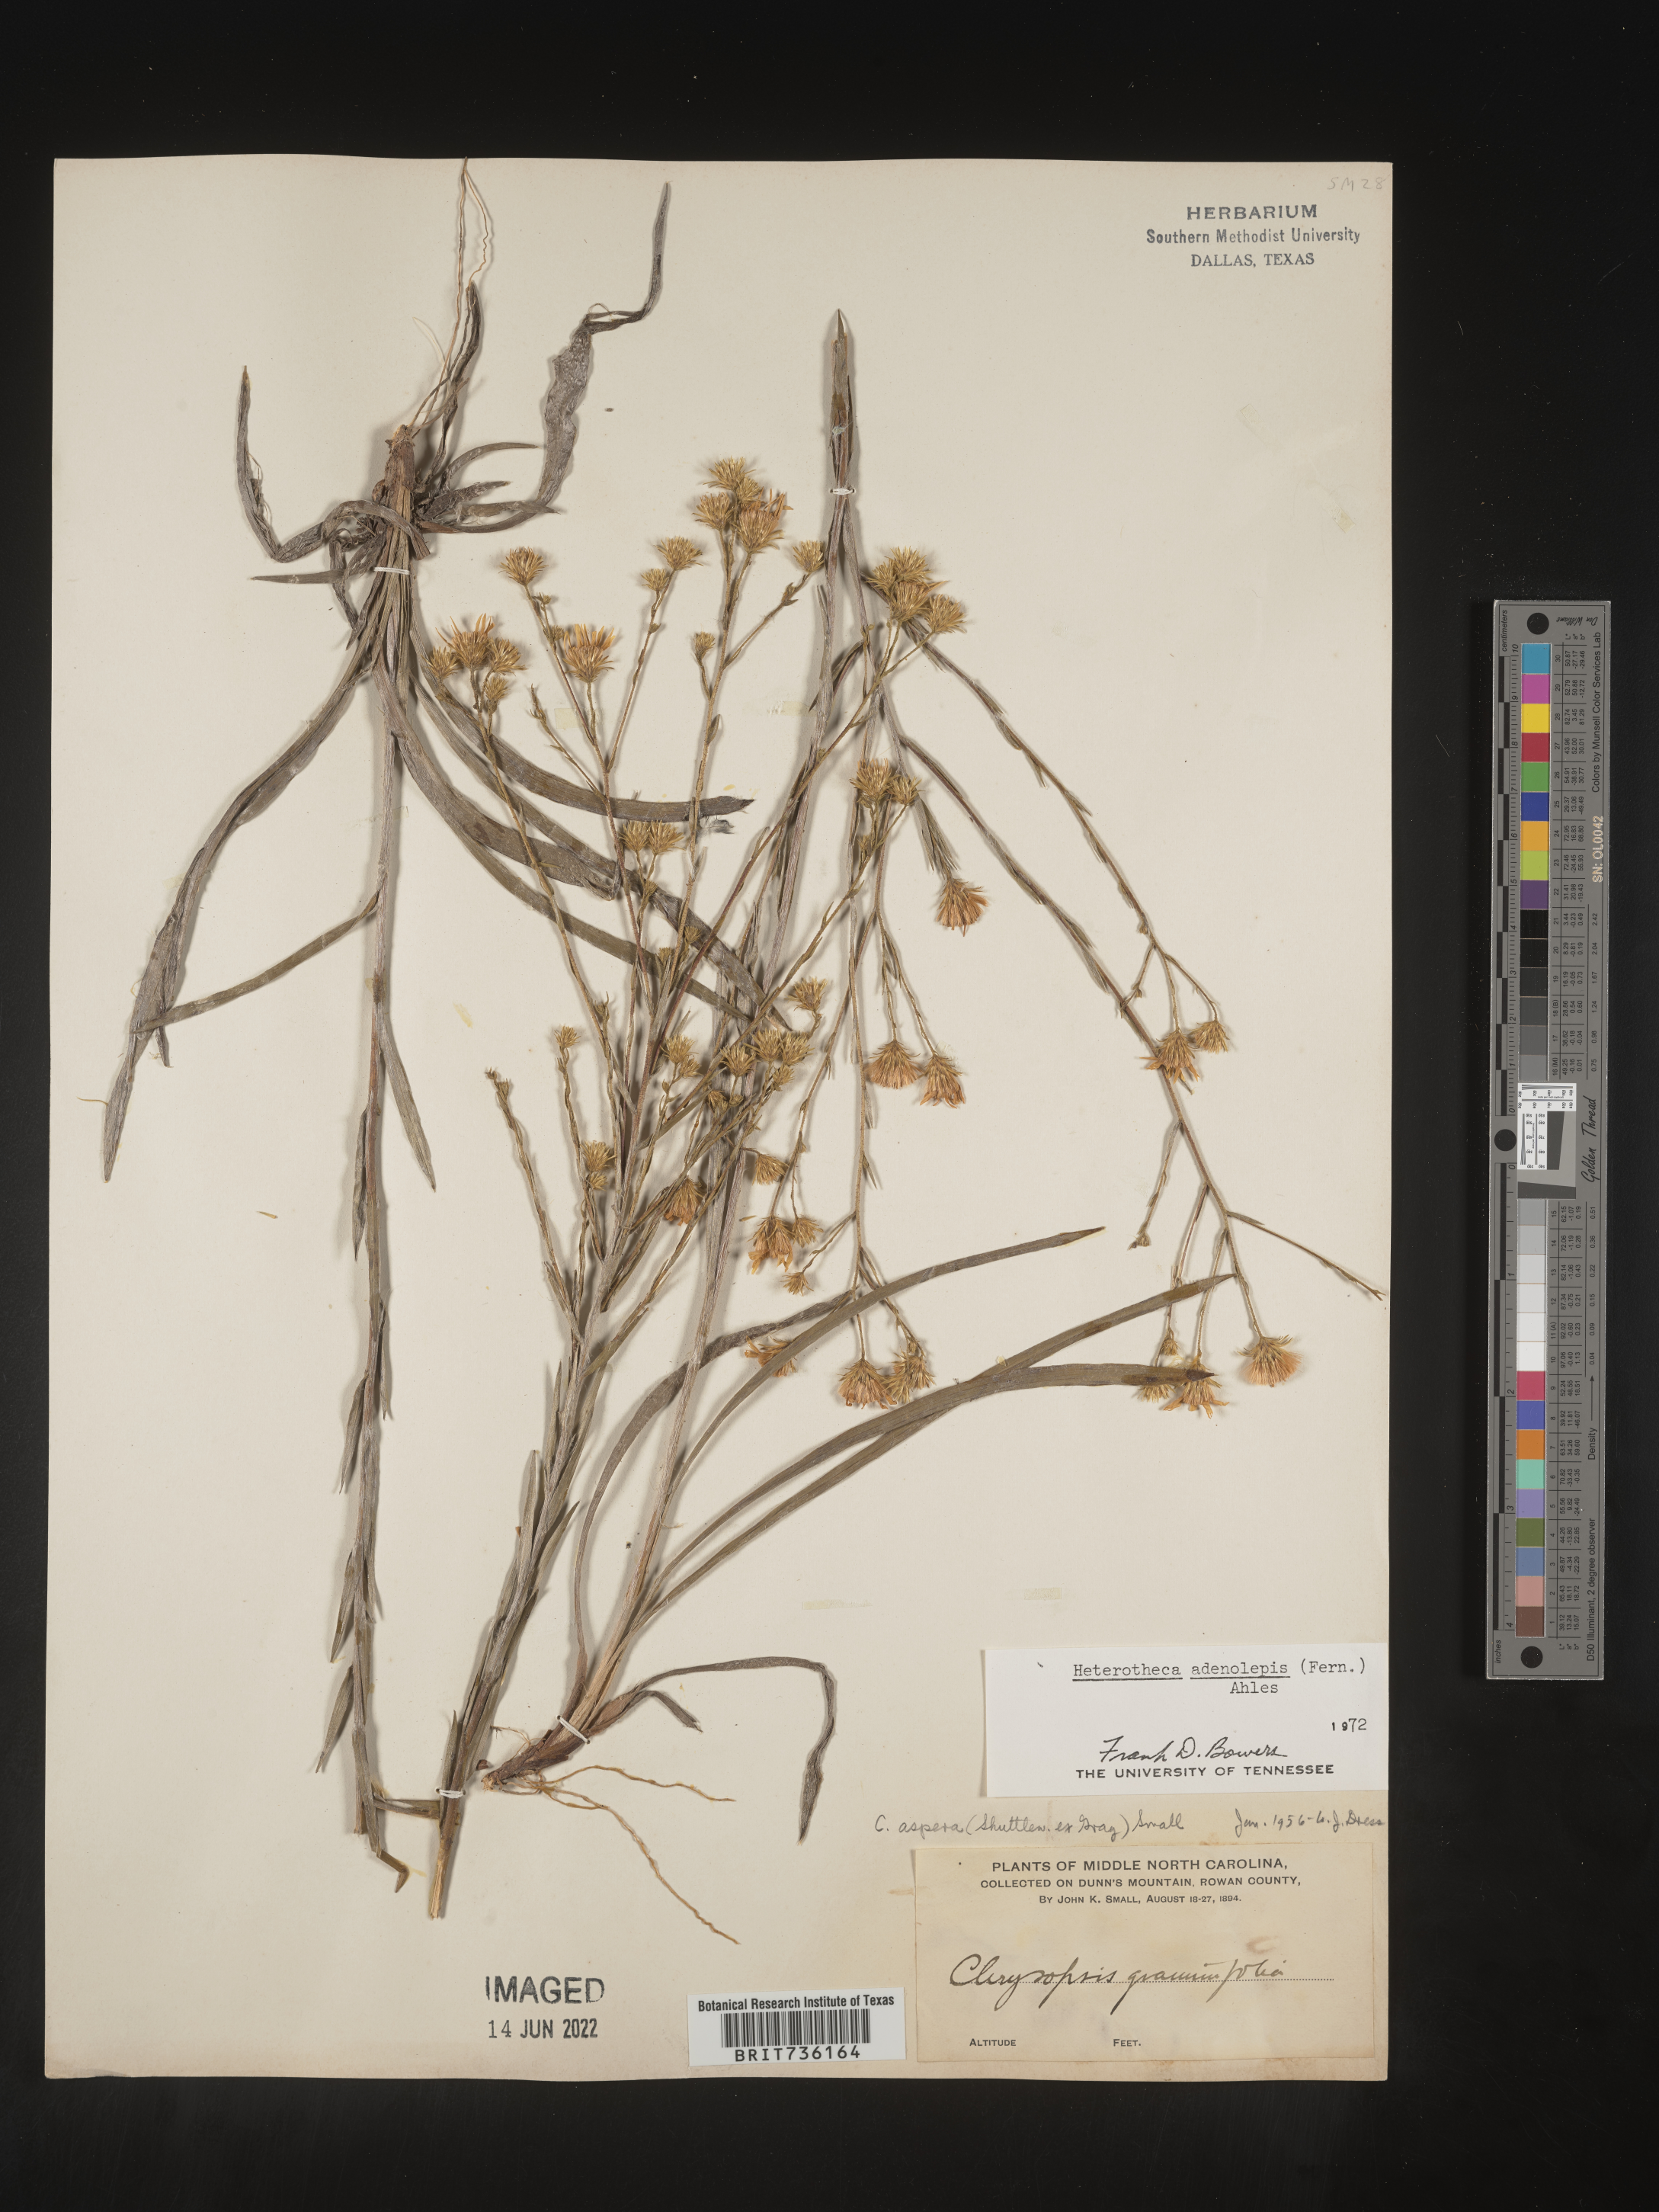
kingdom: Plantae
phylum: Tracheophyta
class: Magnoliopsida
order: Asterales
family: Asteraceae
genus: Pityopsis
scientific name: Pityopsis aspera
